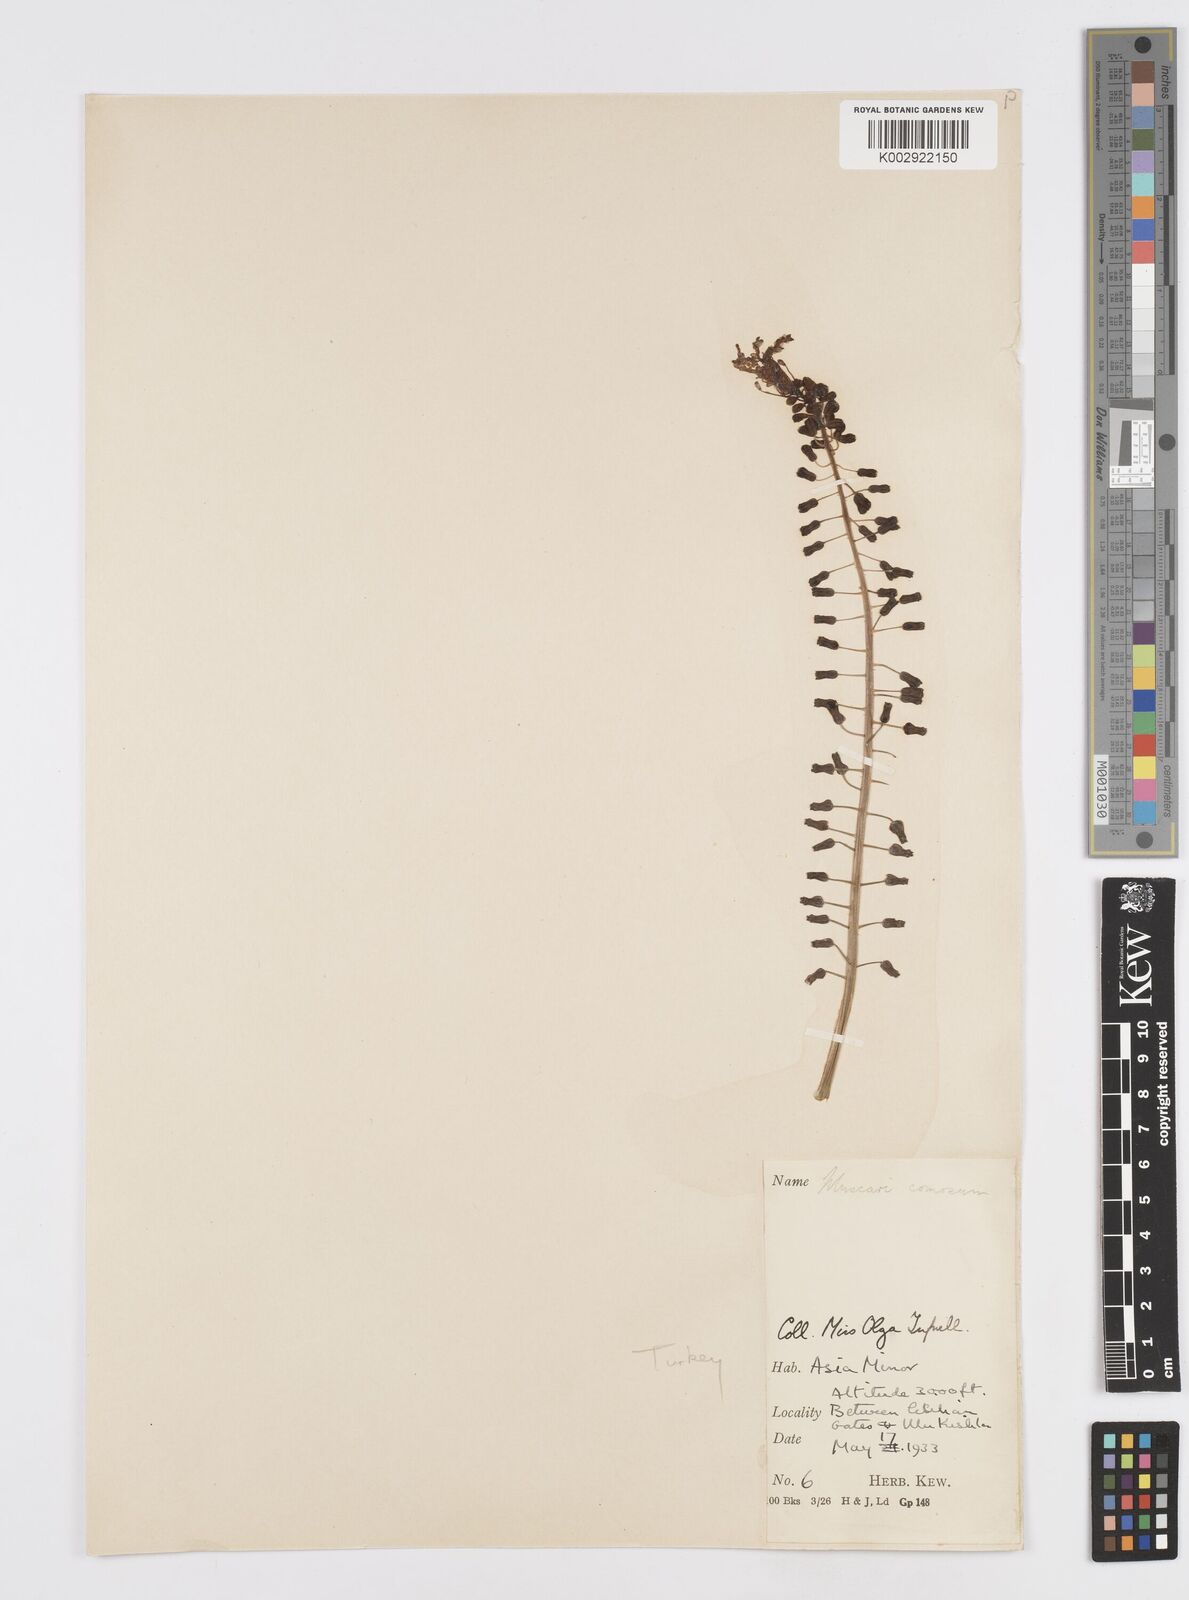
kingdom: Plantae
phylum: Tracheophyta
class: Liliopsida
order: Asparagales
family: Asparagaceae
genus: Muscari
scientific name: Muscari comosum
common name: Tassel hyacinth
